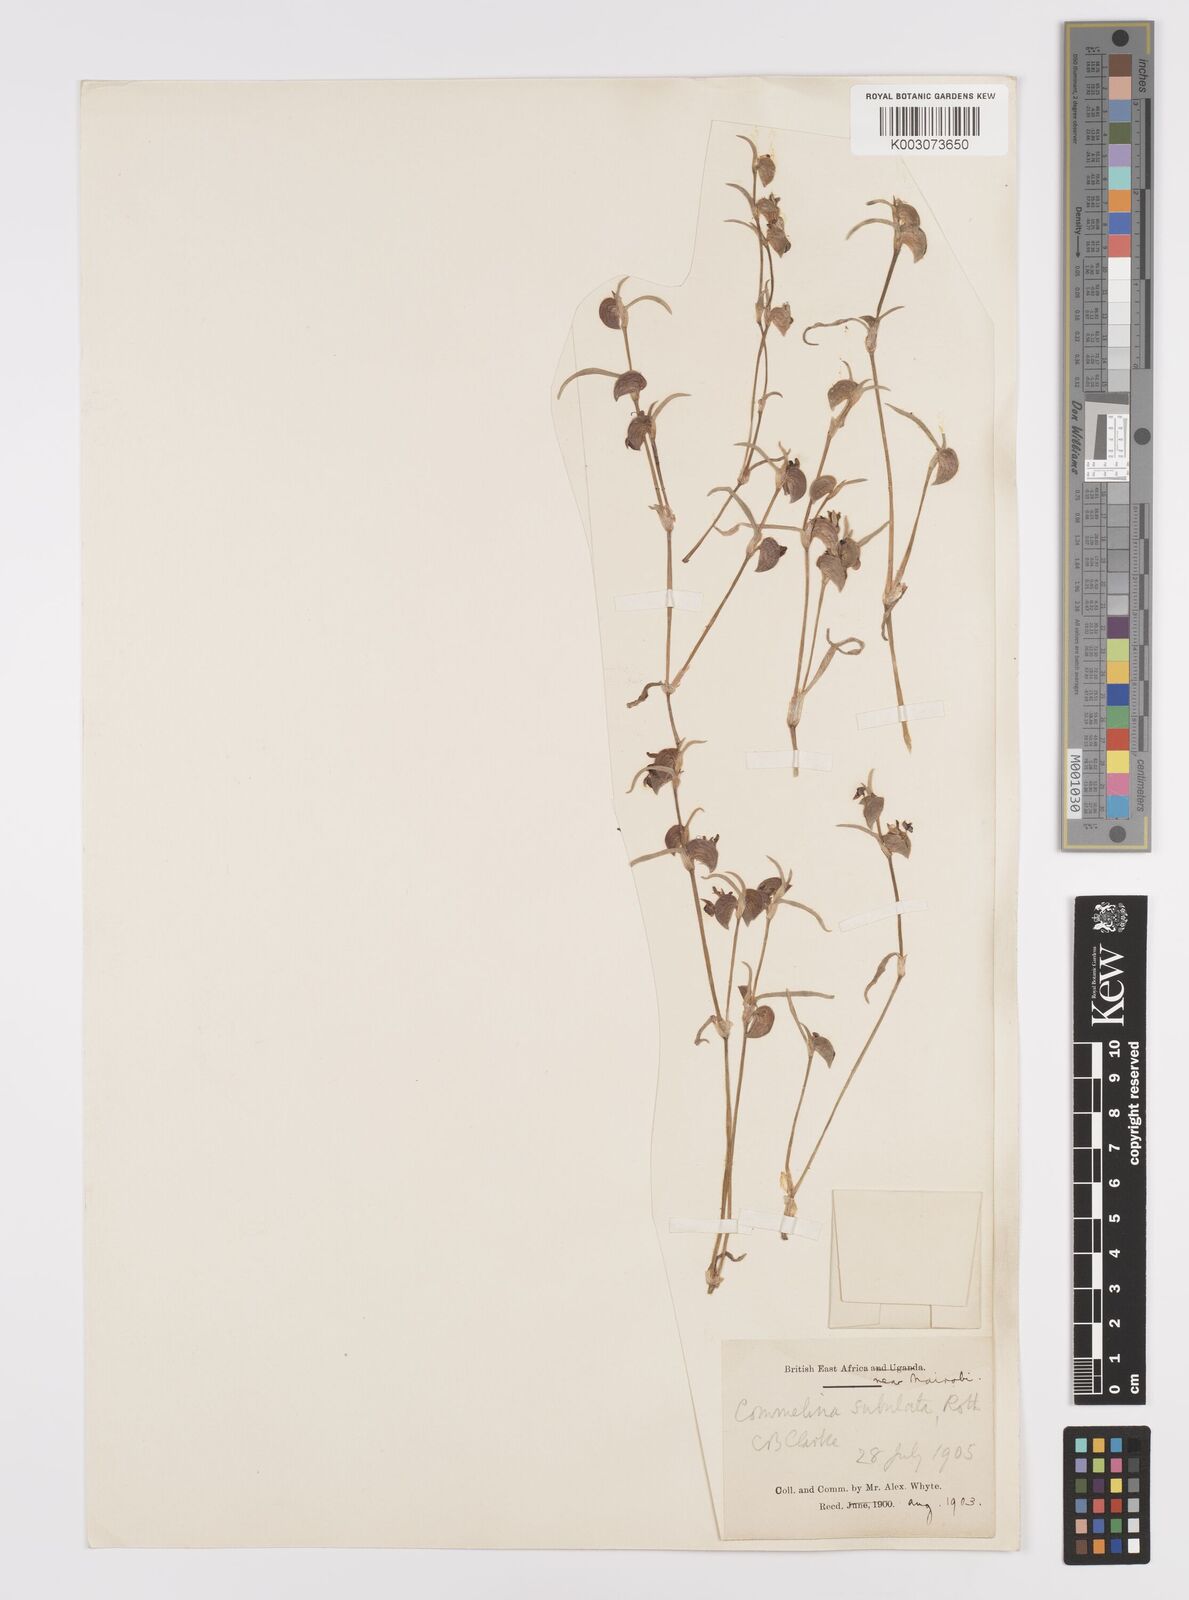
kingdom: Plantae
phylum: Tracheophyta
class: Liliopsida
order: Commelinales
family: Commelinaceae
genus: Commelina
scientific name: Commelina purpurea
